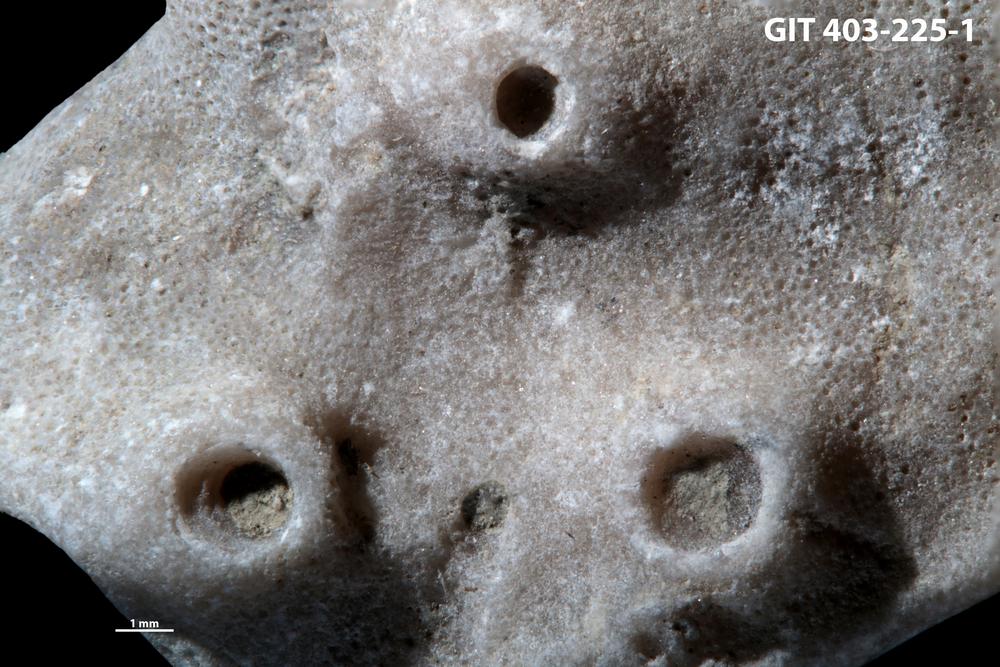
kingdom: Animalia
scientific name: Animalia
